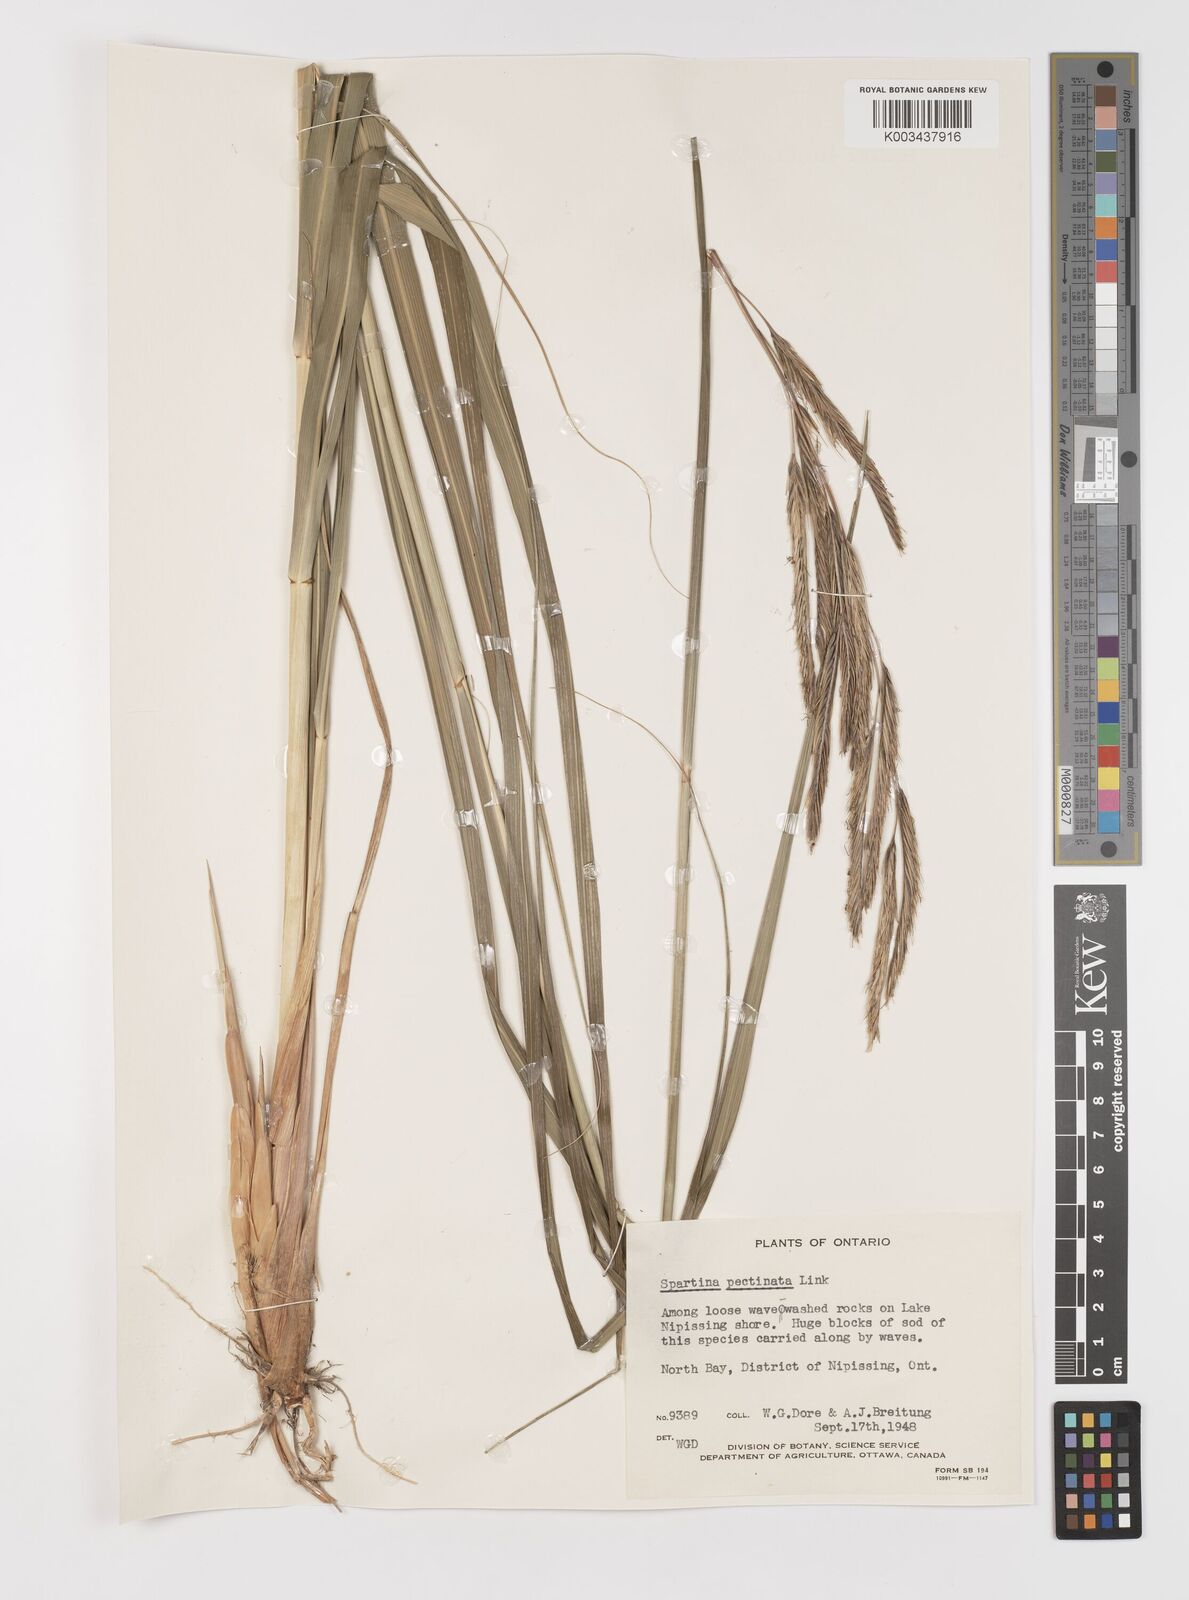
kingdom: Plantae
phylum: Tracheophyta
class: Liliopsida
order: Poales
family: Poaceae
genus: Sporobolus
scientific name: Sporobolus michauxianus
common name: Freshwater cordgrass
